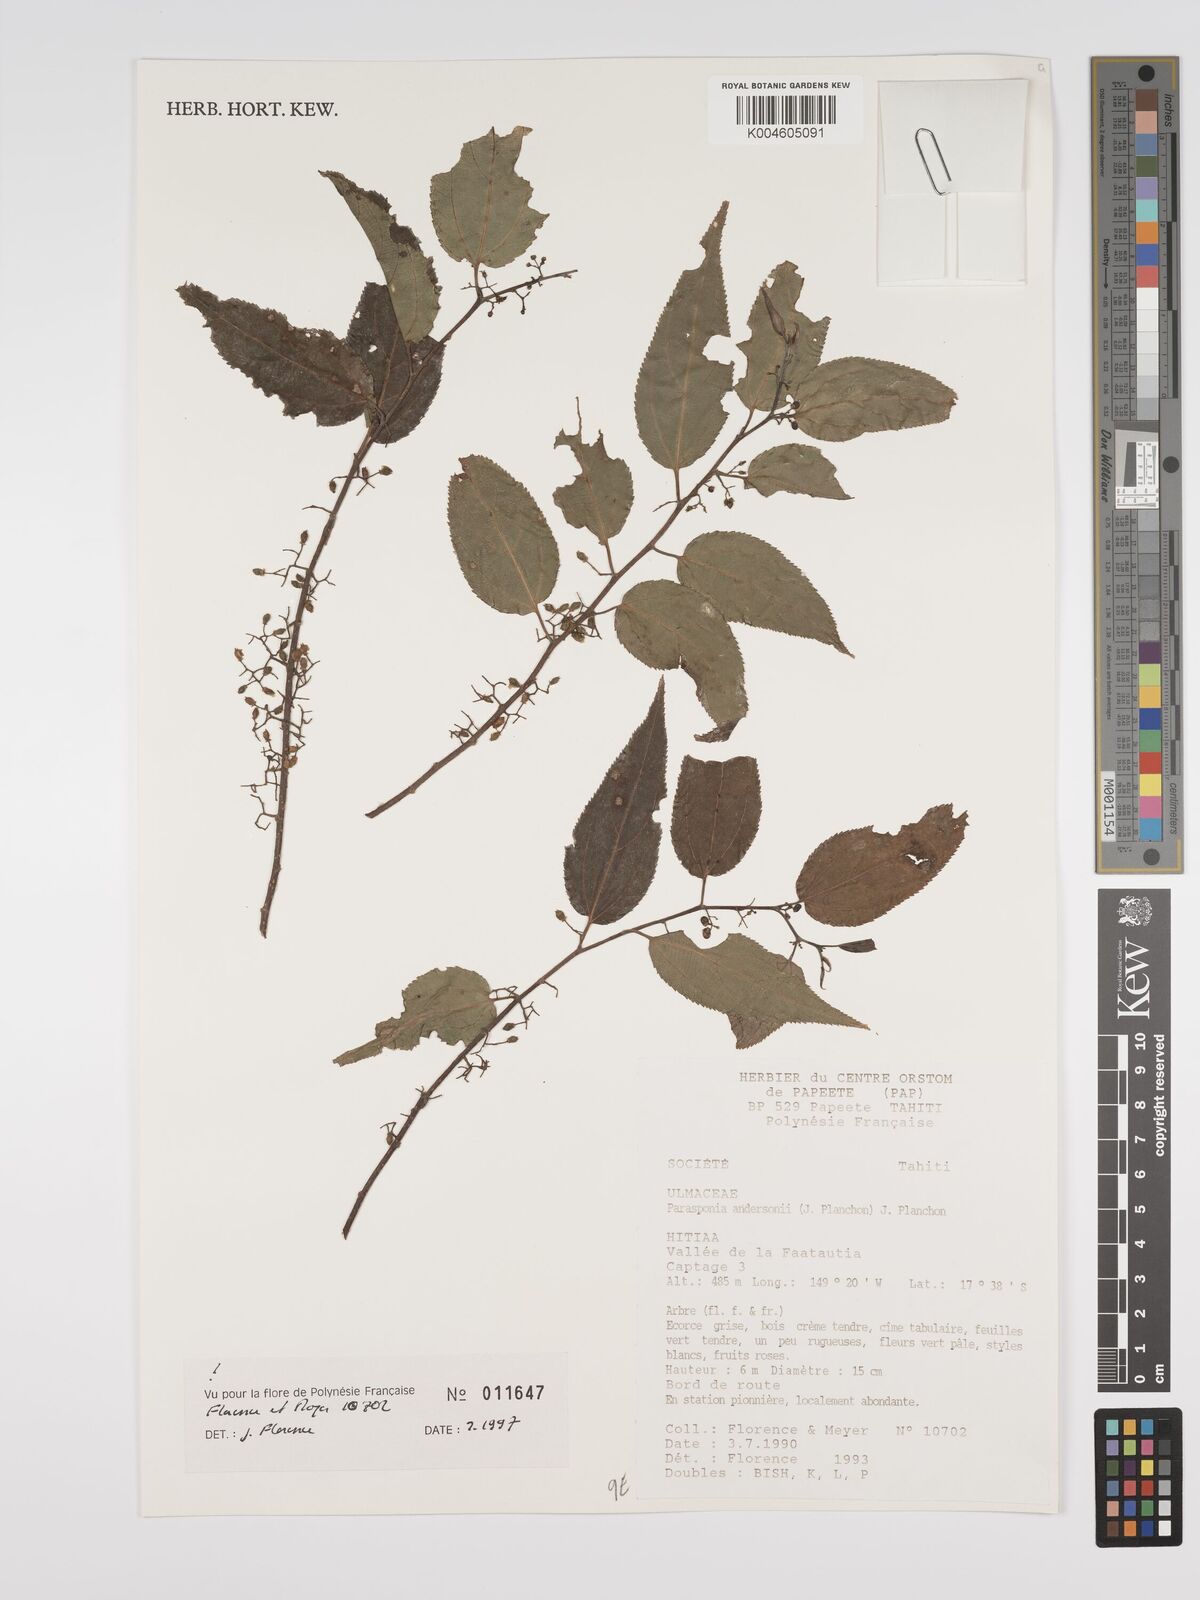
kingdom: Plantae
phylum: Tracheophyta
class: Magnoliopsida
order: Rosales
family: Cannabaceae
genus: Trema
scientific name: Trema andersonii
